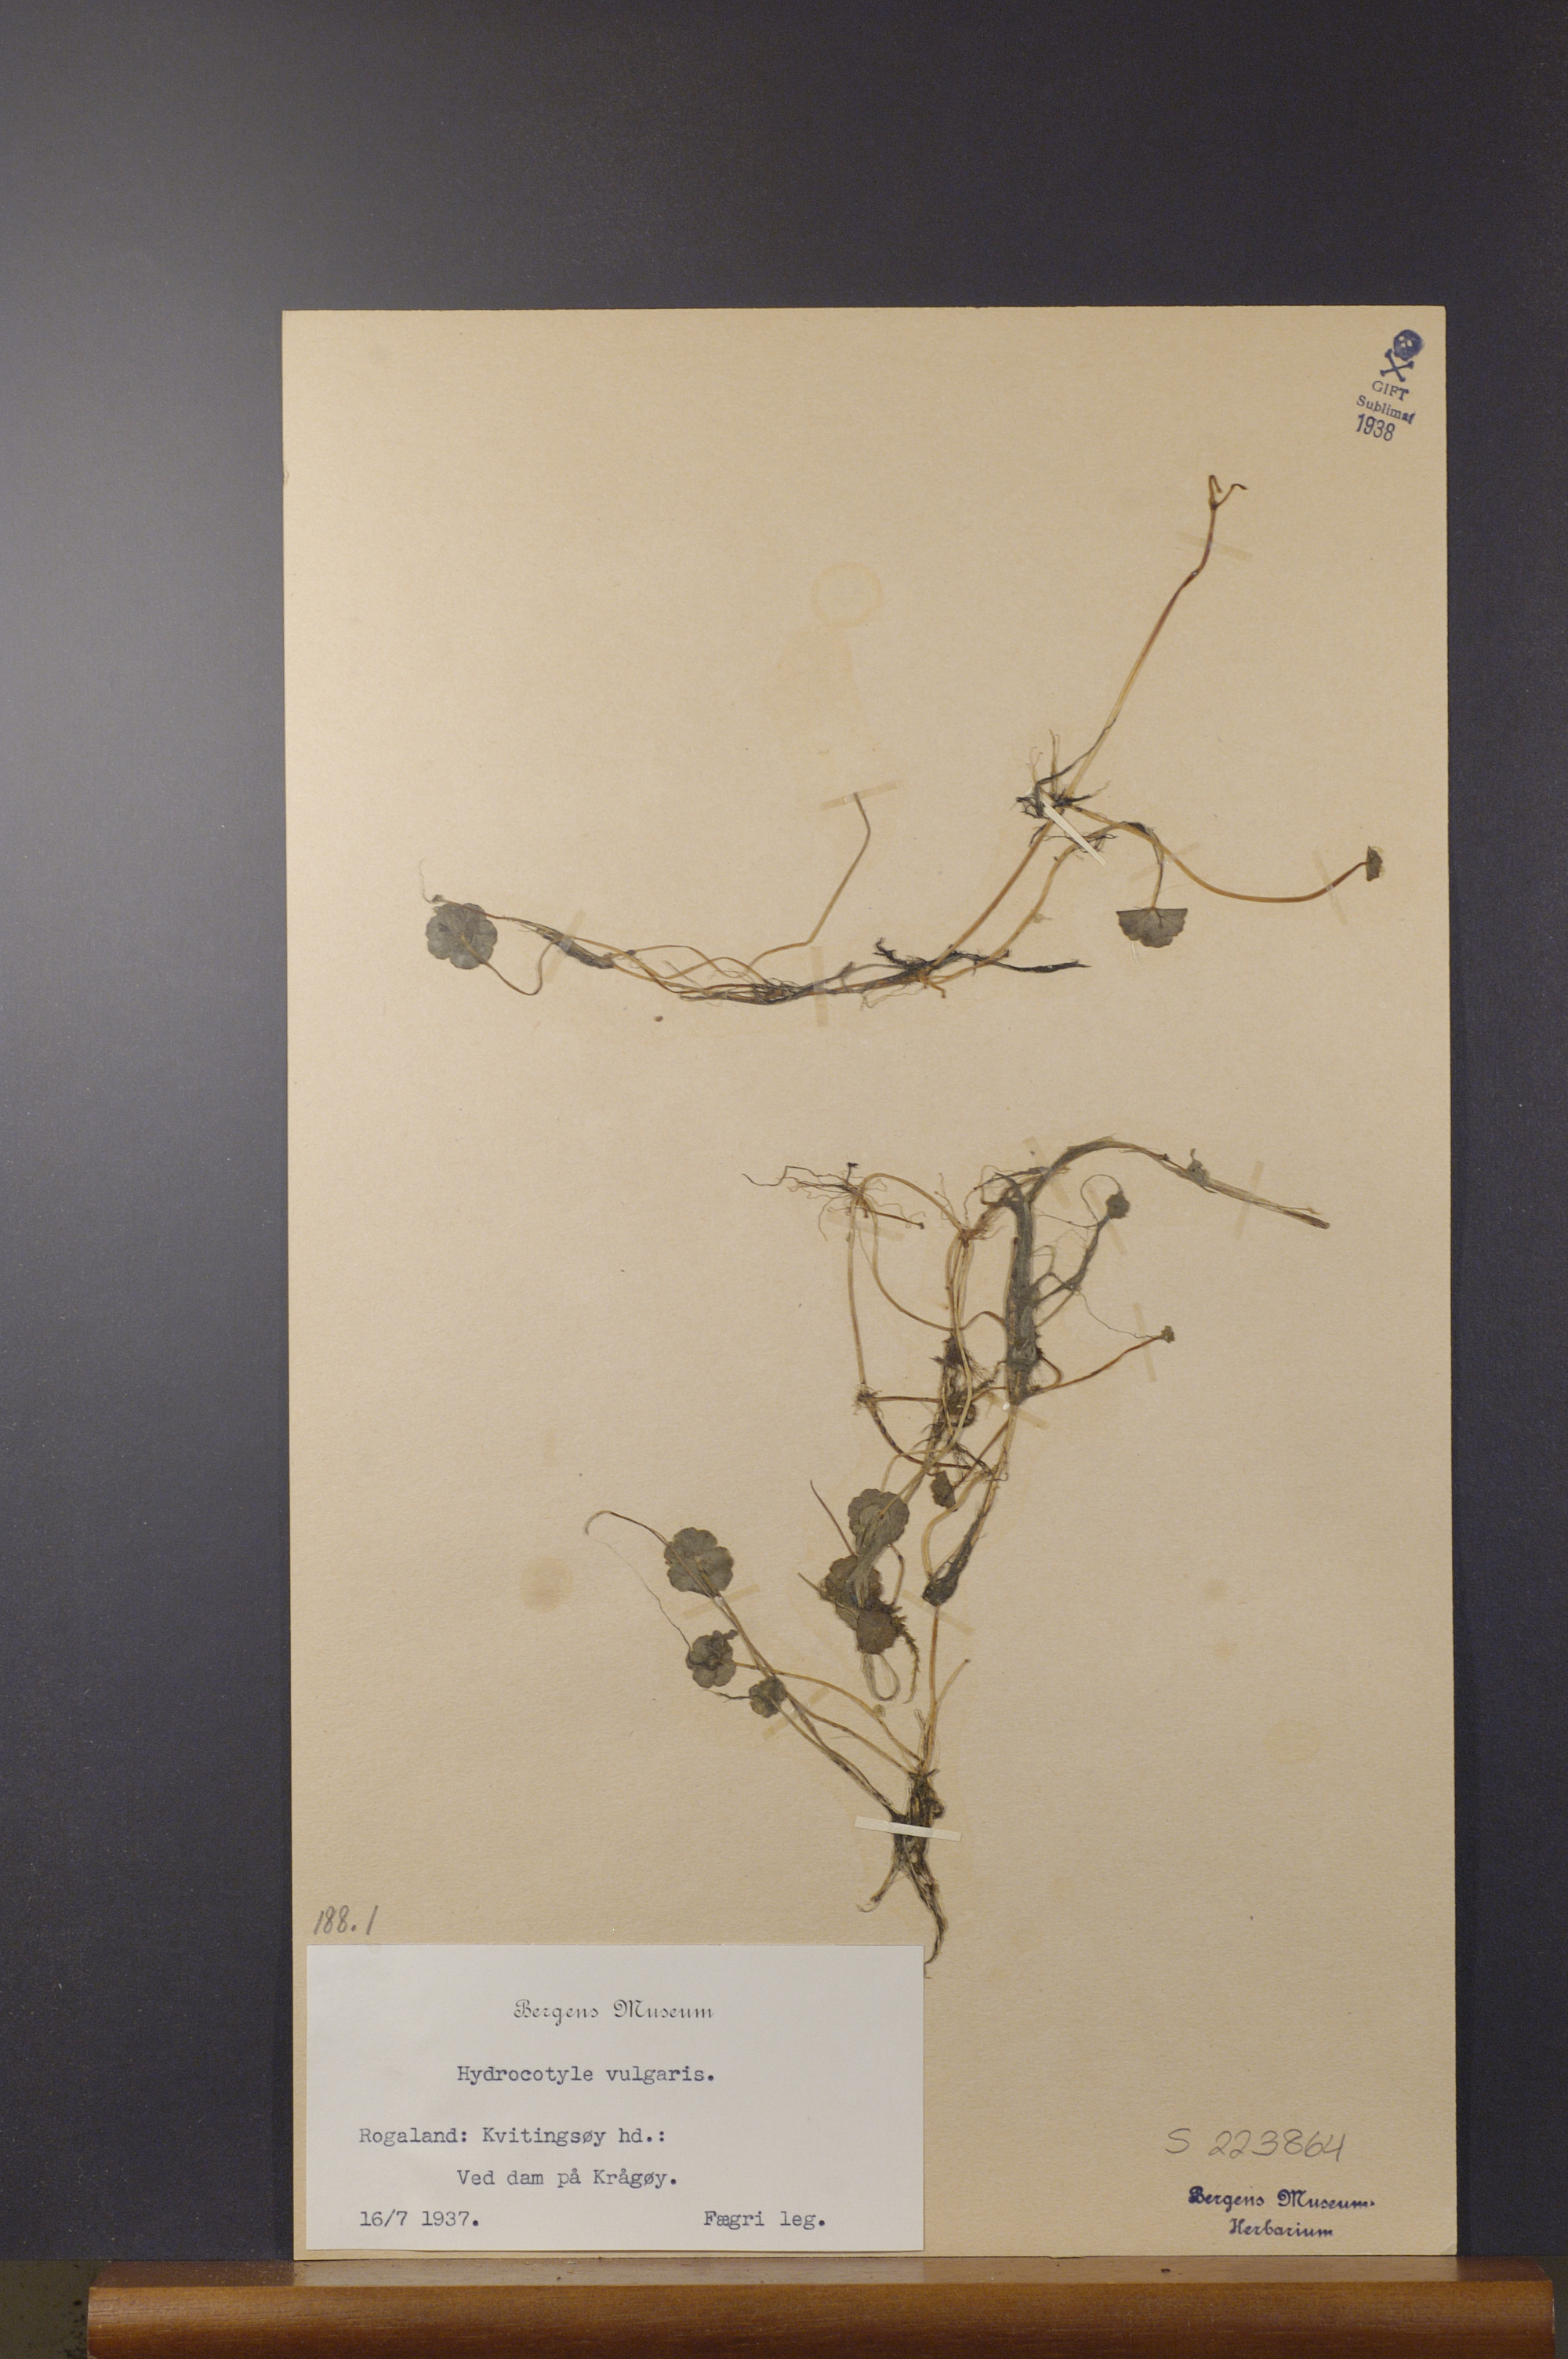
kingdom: Plantae
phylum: Tracheophyta
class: Magnoliopsida
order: Apiales
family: Araliaceae
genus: Hydrocotyle
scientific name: Hydrocotyle vulgaris
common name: Marsh pennywort
